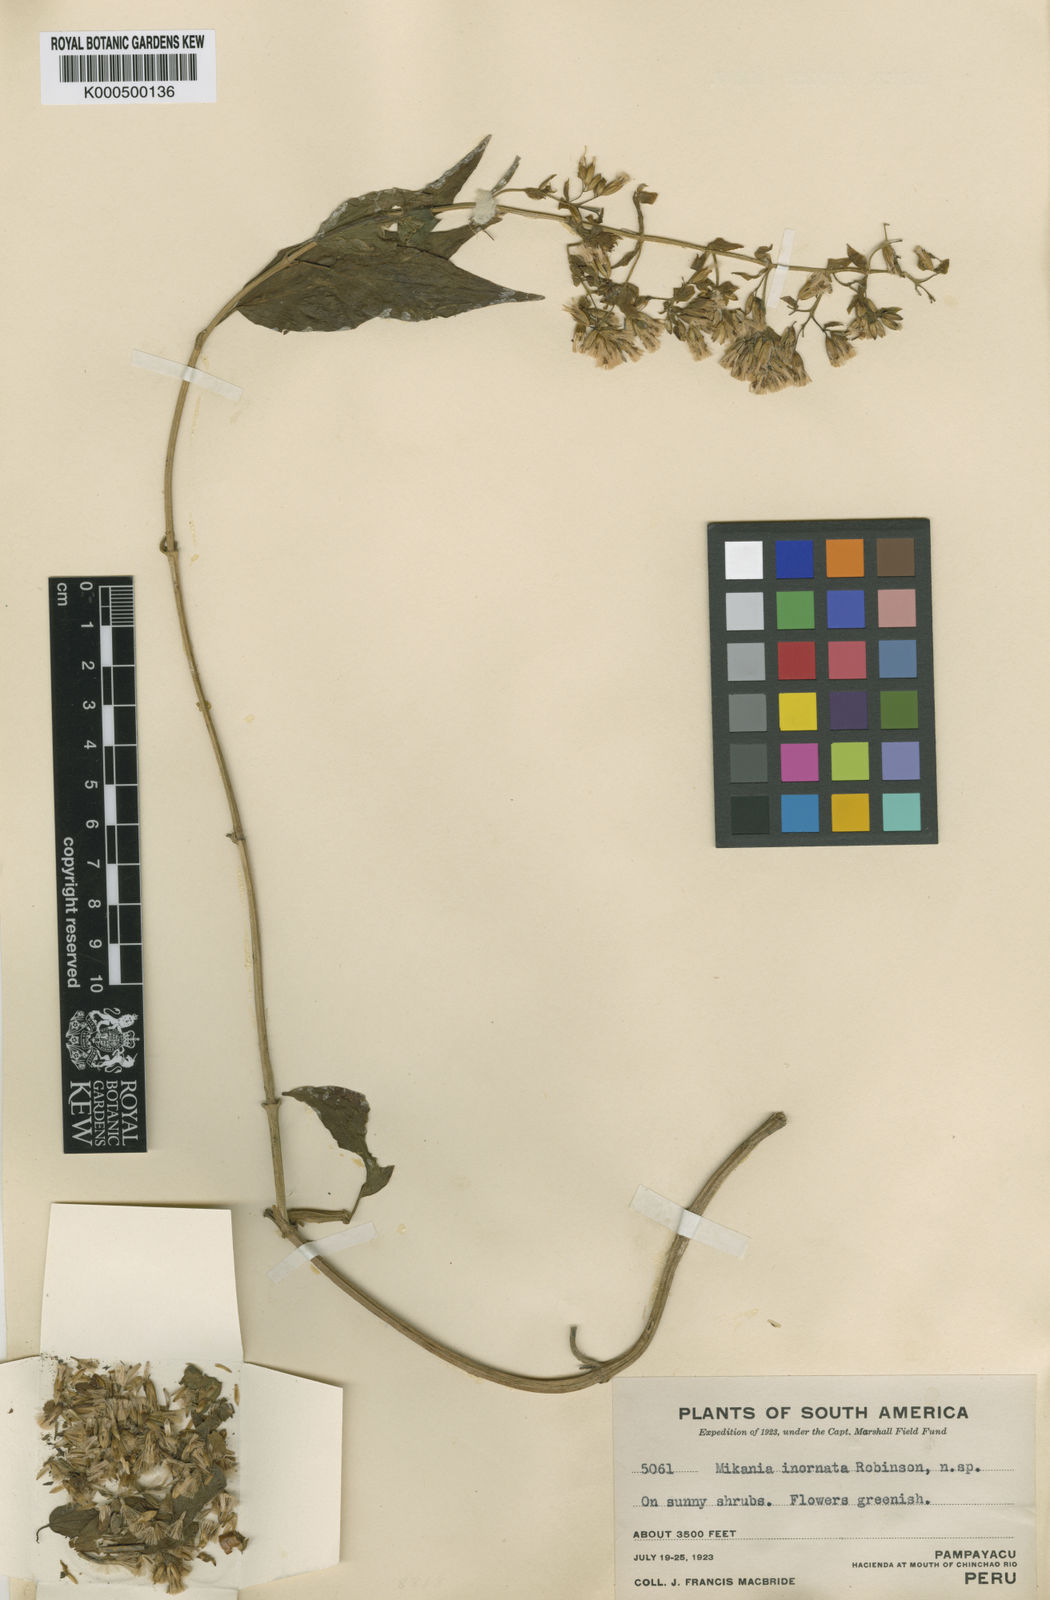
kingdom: Plantae
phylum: Tracheophyta
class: Magnoliopsida
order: Asterales
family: Asteraceae
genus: Mikania
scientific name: Mikania inornata
